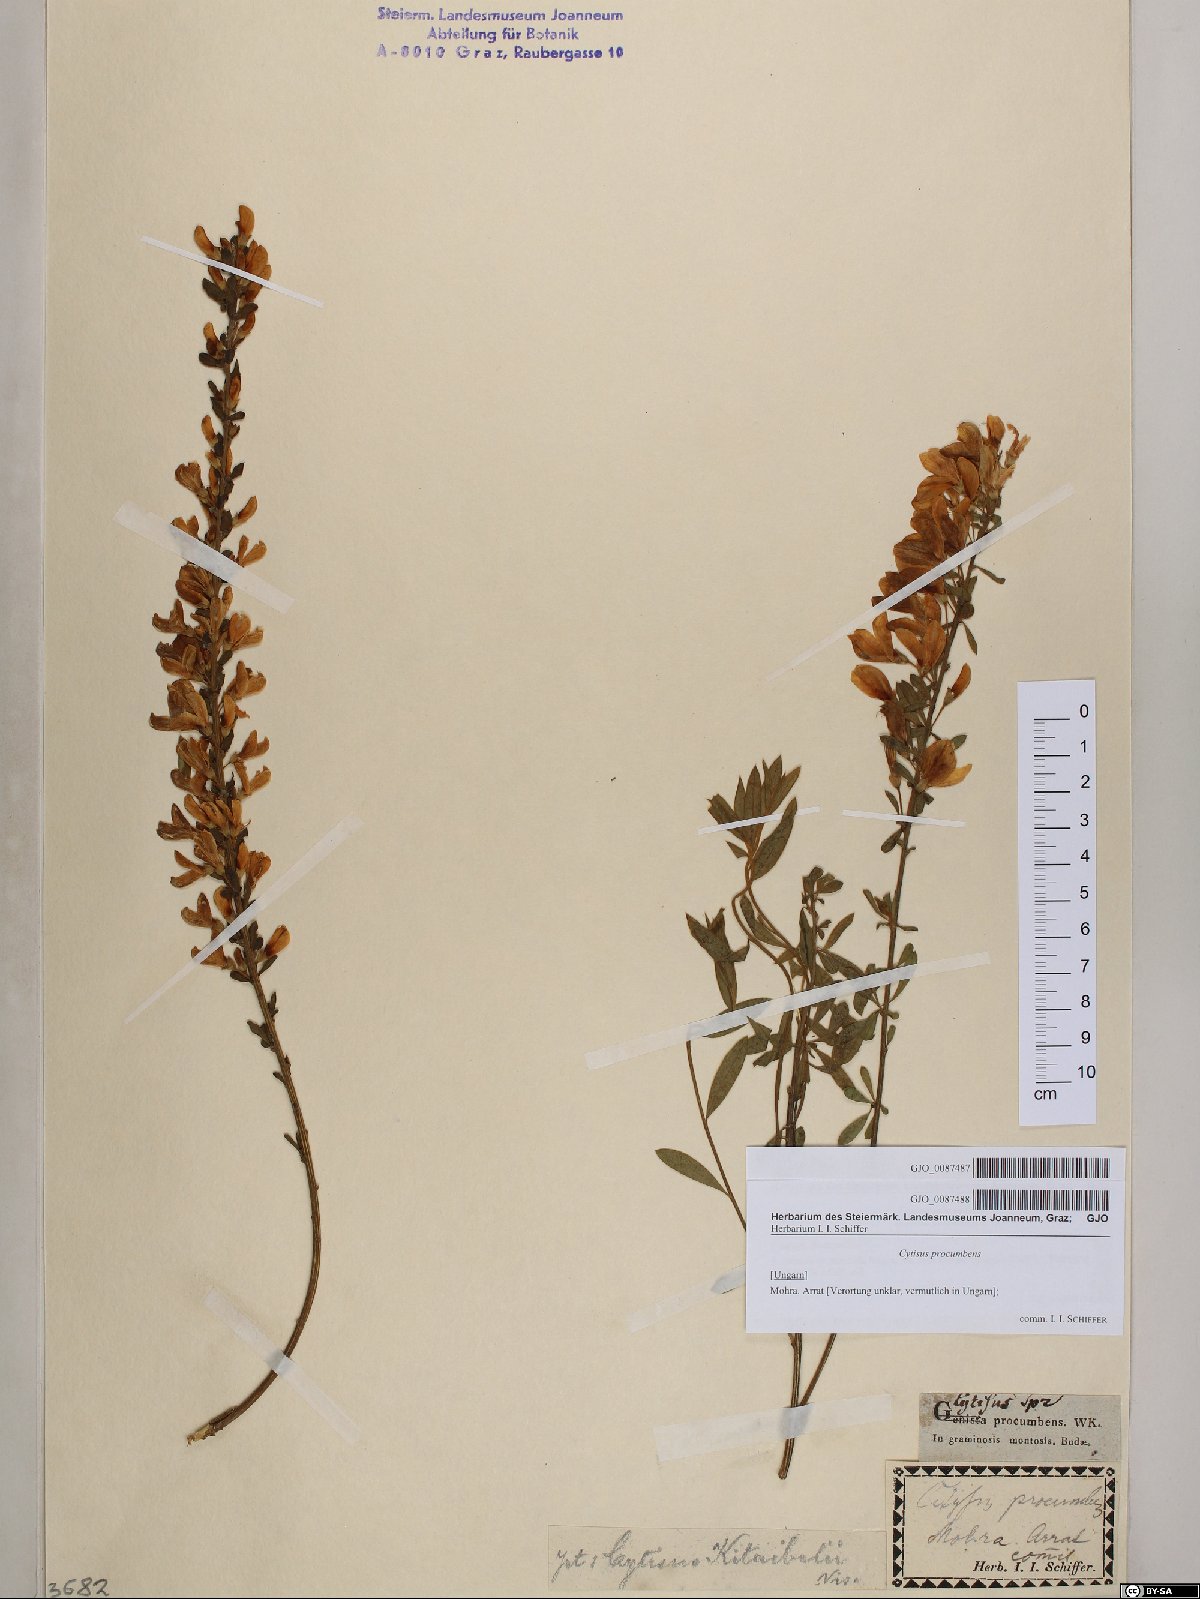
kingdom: Plantae
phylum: Tracheophyta
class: Magnoliopsida
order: Fabales
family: Fabaceae
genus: Cytisus
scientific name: Cytisus procumbens
